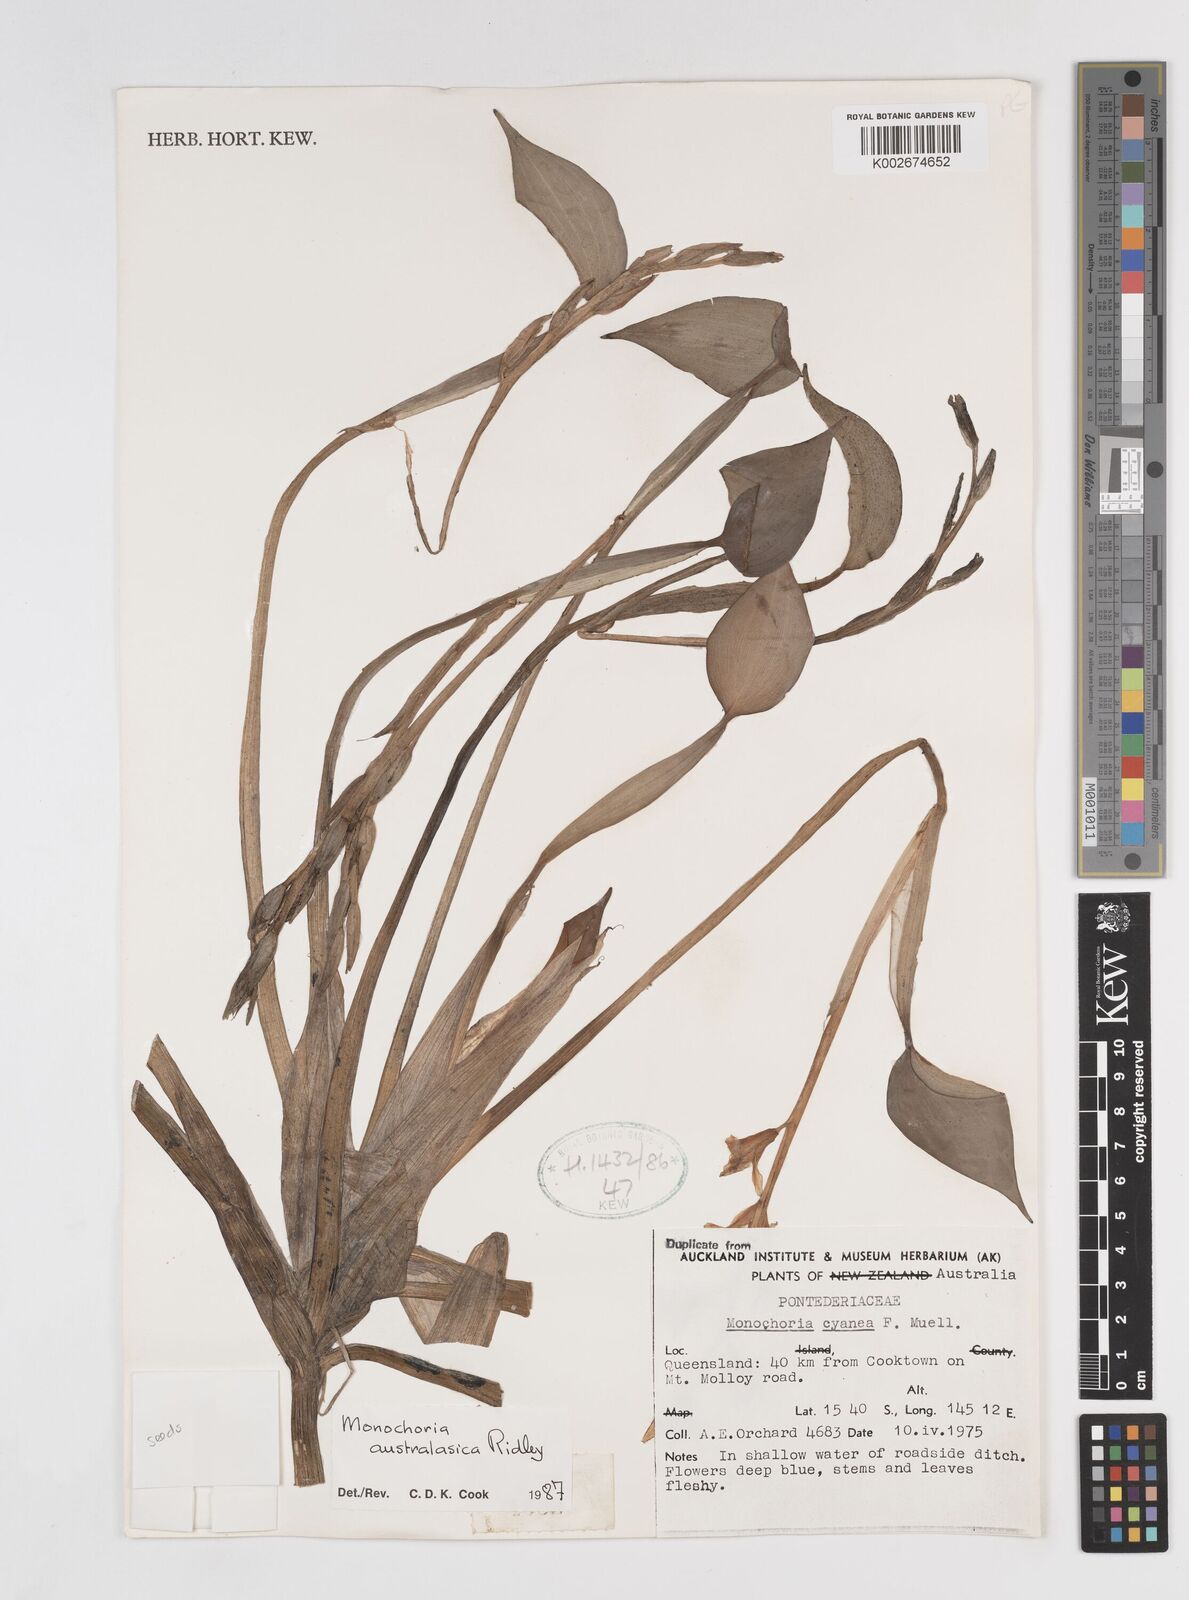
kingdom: Plantae
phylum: Tracheophyta
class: Liliopsida
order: Commelinales
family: Pontederiaceae
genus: Pontederia
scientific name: Pontederia australasica
